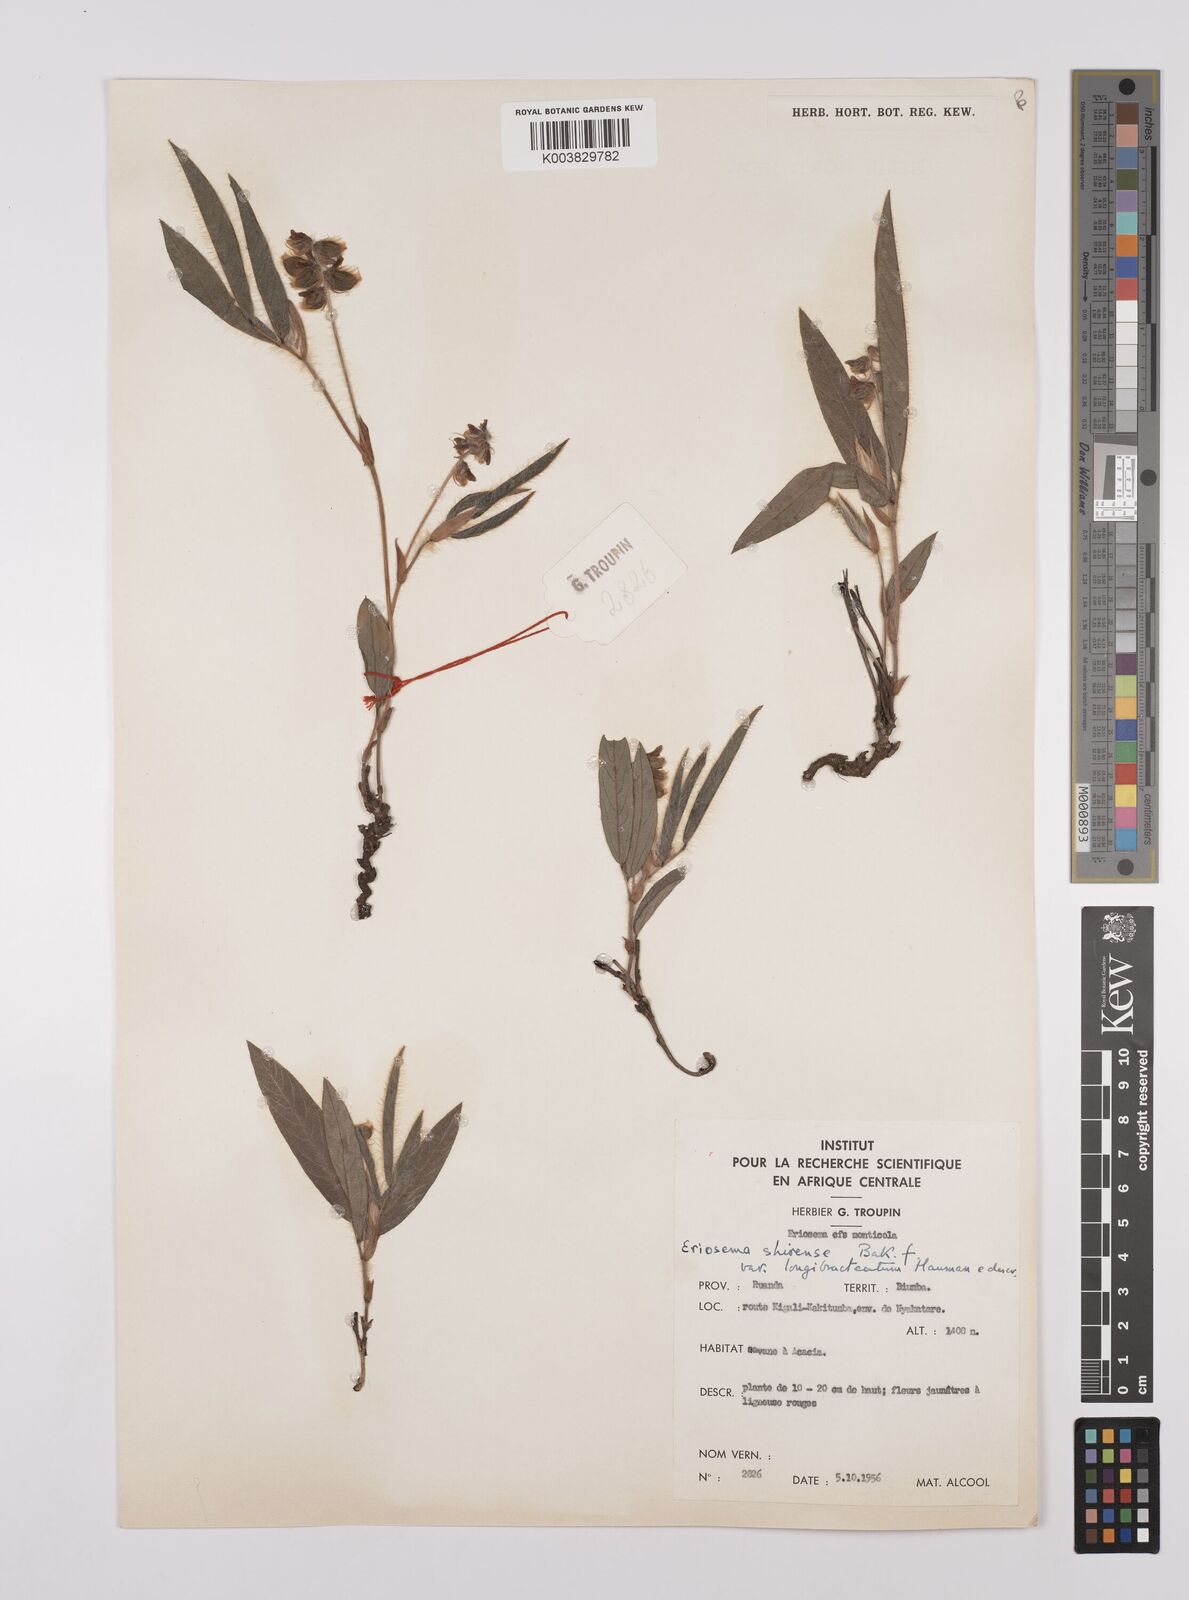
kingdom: Plantae
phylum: Tracheophyta
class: Magnoliopsida
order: Fabales
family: Fabaceae
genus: Eriosema
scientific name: Eriosema shirense
